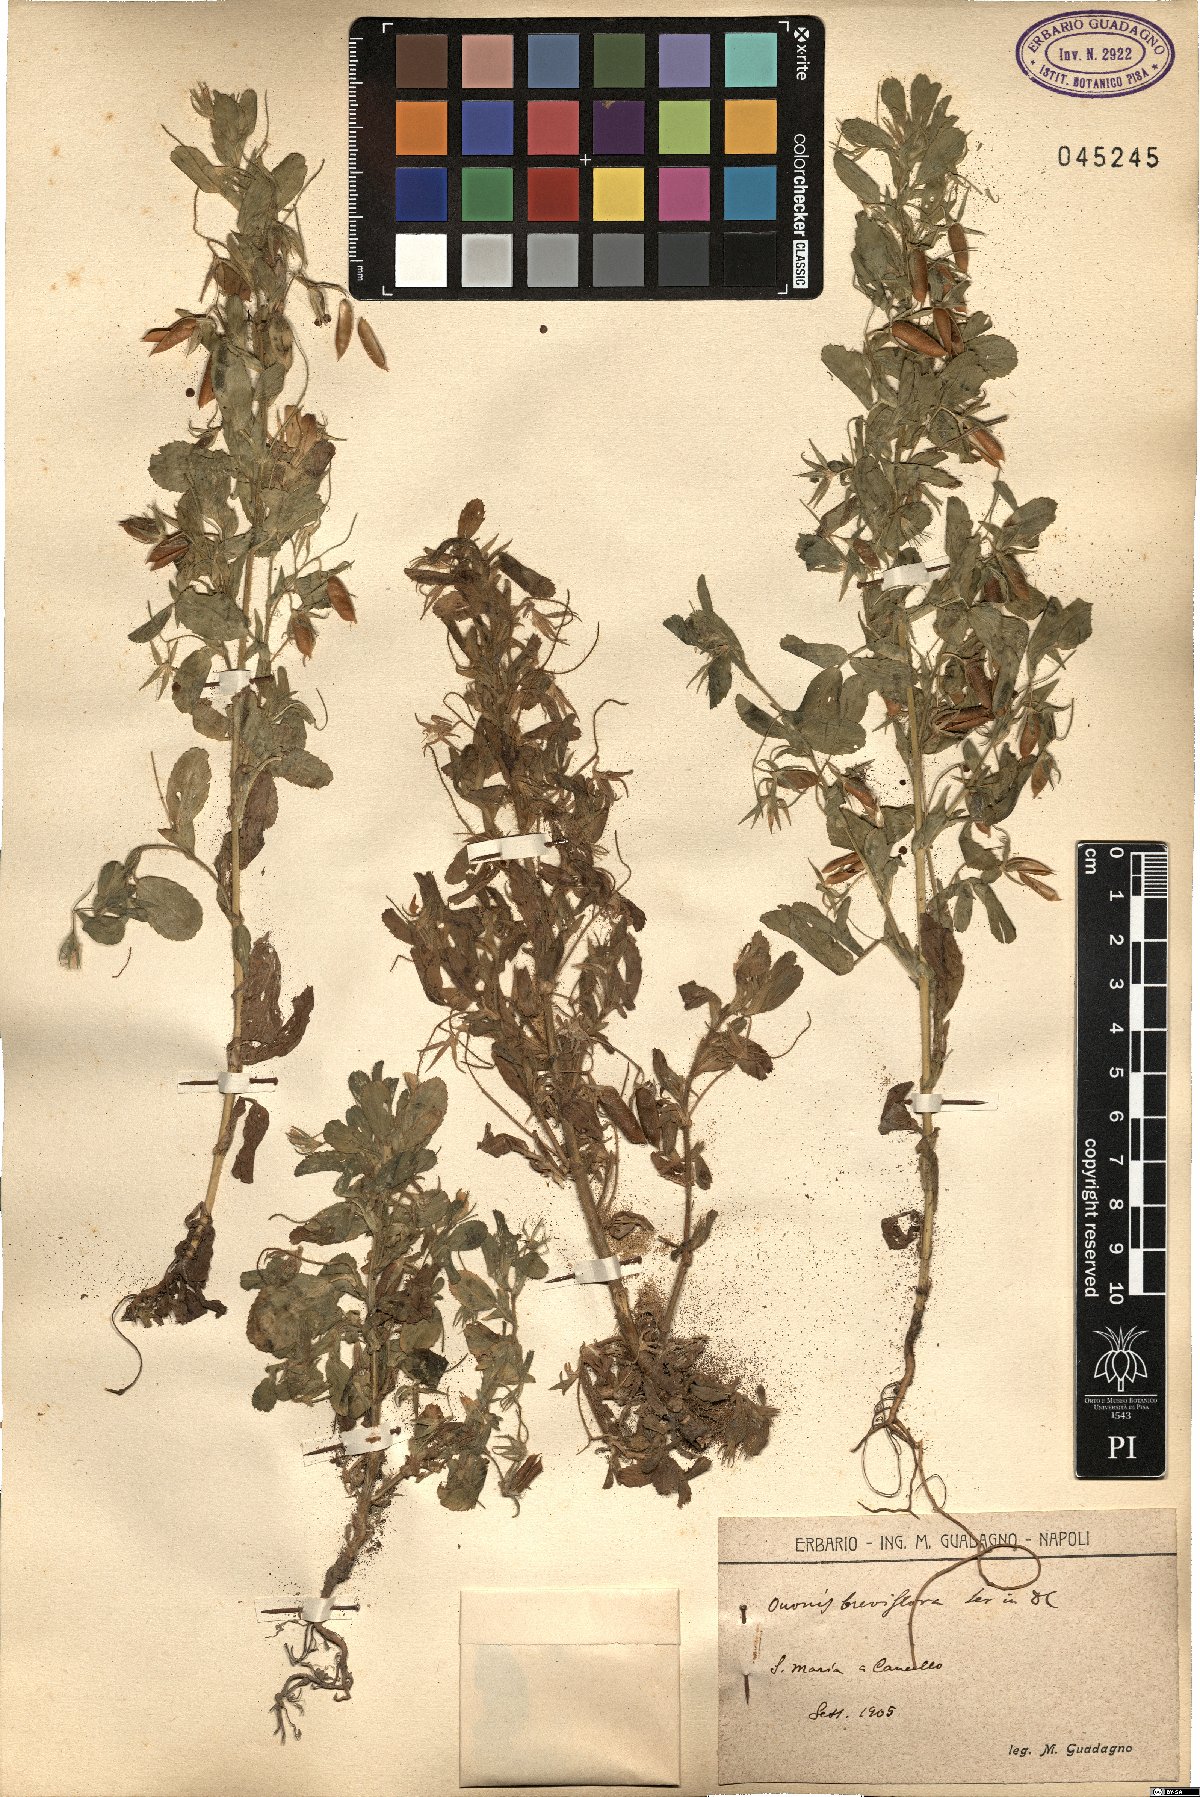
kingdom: Plantae
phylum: Tracheophyta
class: Magnoliopsida
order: Fabales
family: Fabaceae
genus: Ononis
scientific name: Ononis viscosa
